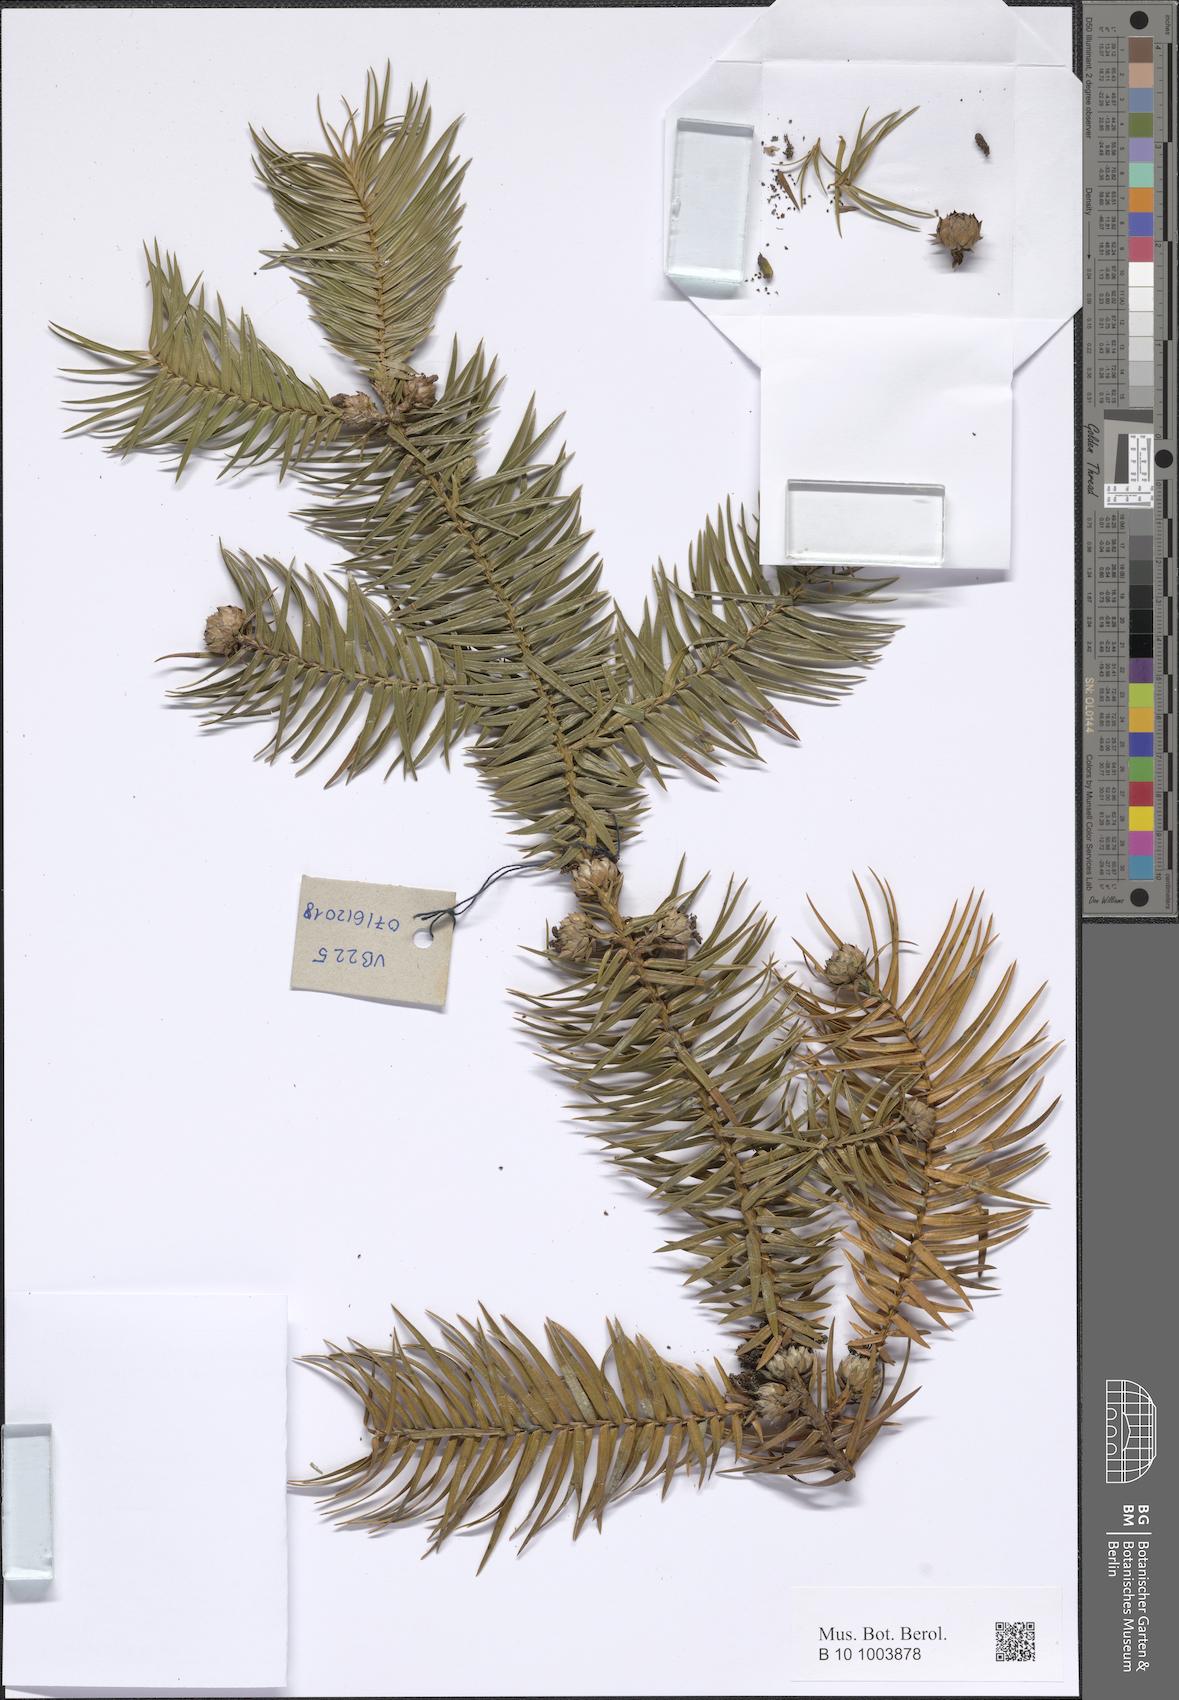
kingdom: Plantae
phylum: Tracheophyta
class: Pinopsida
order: Pinales
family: Cupressaceae
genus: Cunninghamia
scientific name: Cunninghamia lanceolata
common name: Chinese fir
